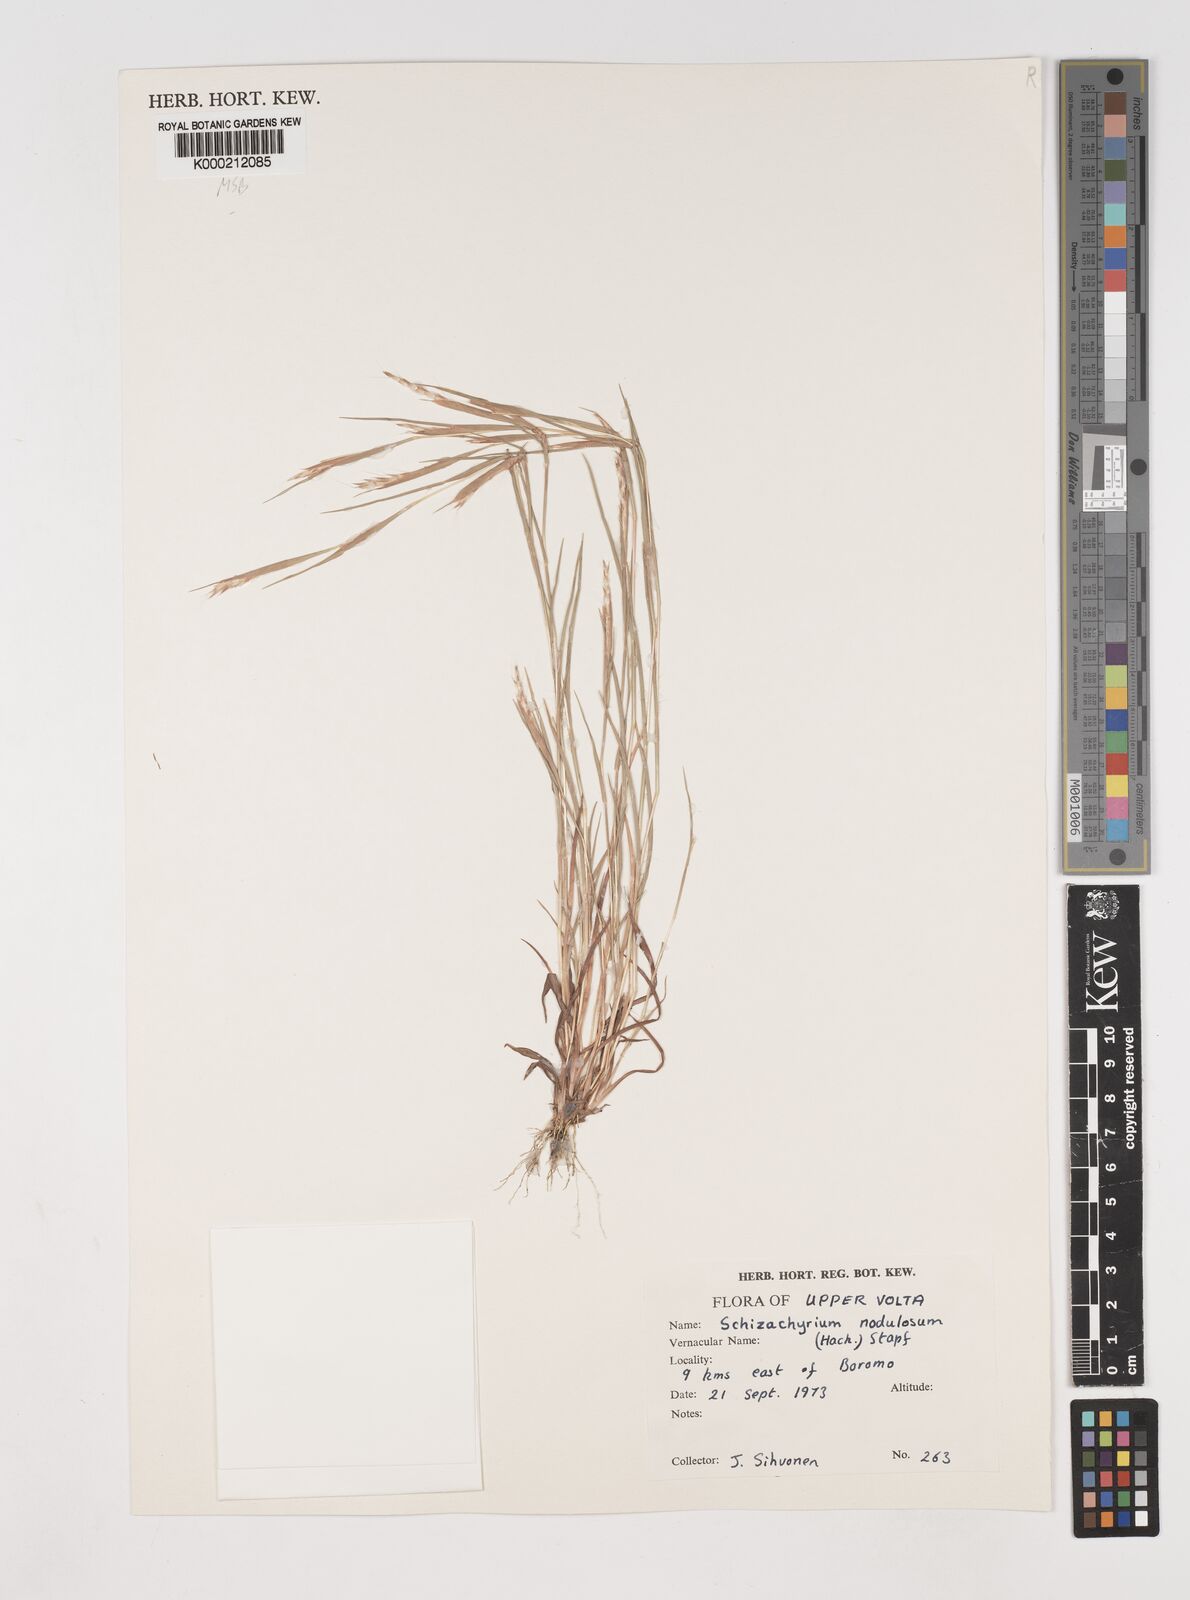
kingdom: Plantae
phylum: Tracheophyta
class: Liliopsida
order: Poales
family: Poaceae
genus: Schizachyrium
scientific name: Schizachyrium nodulosum
